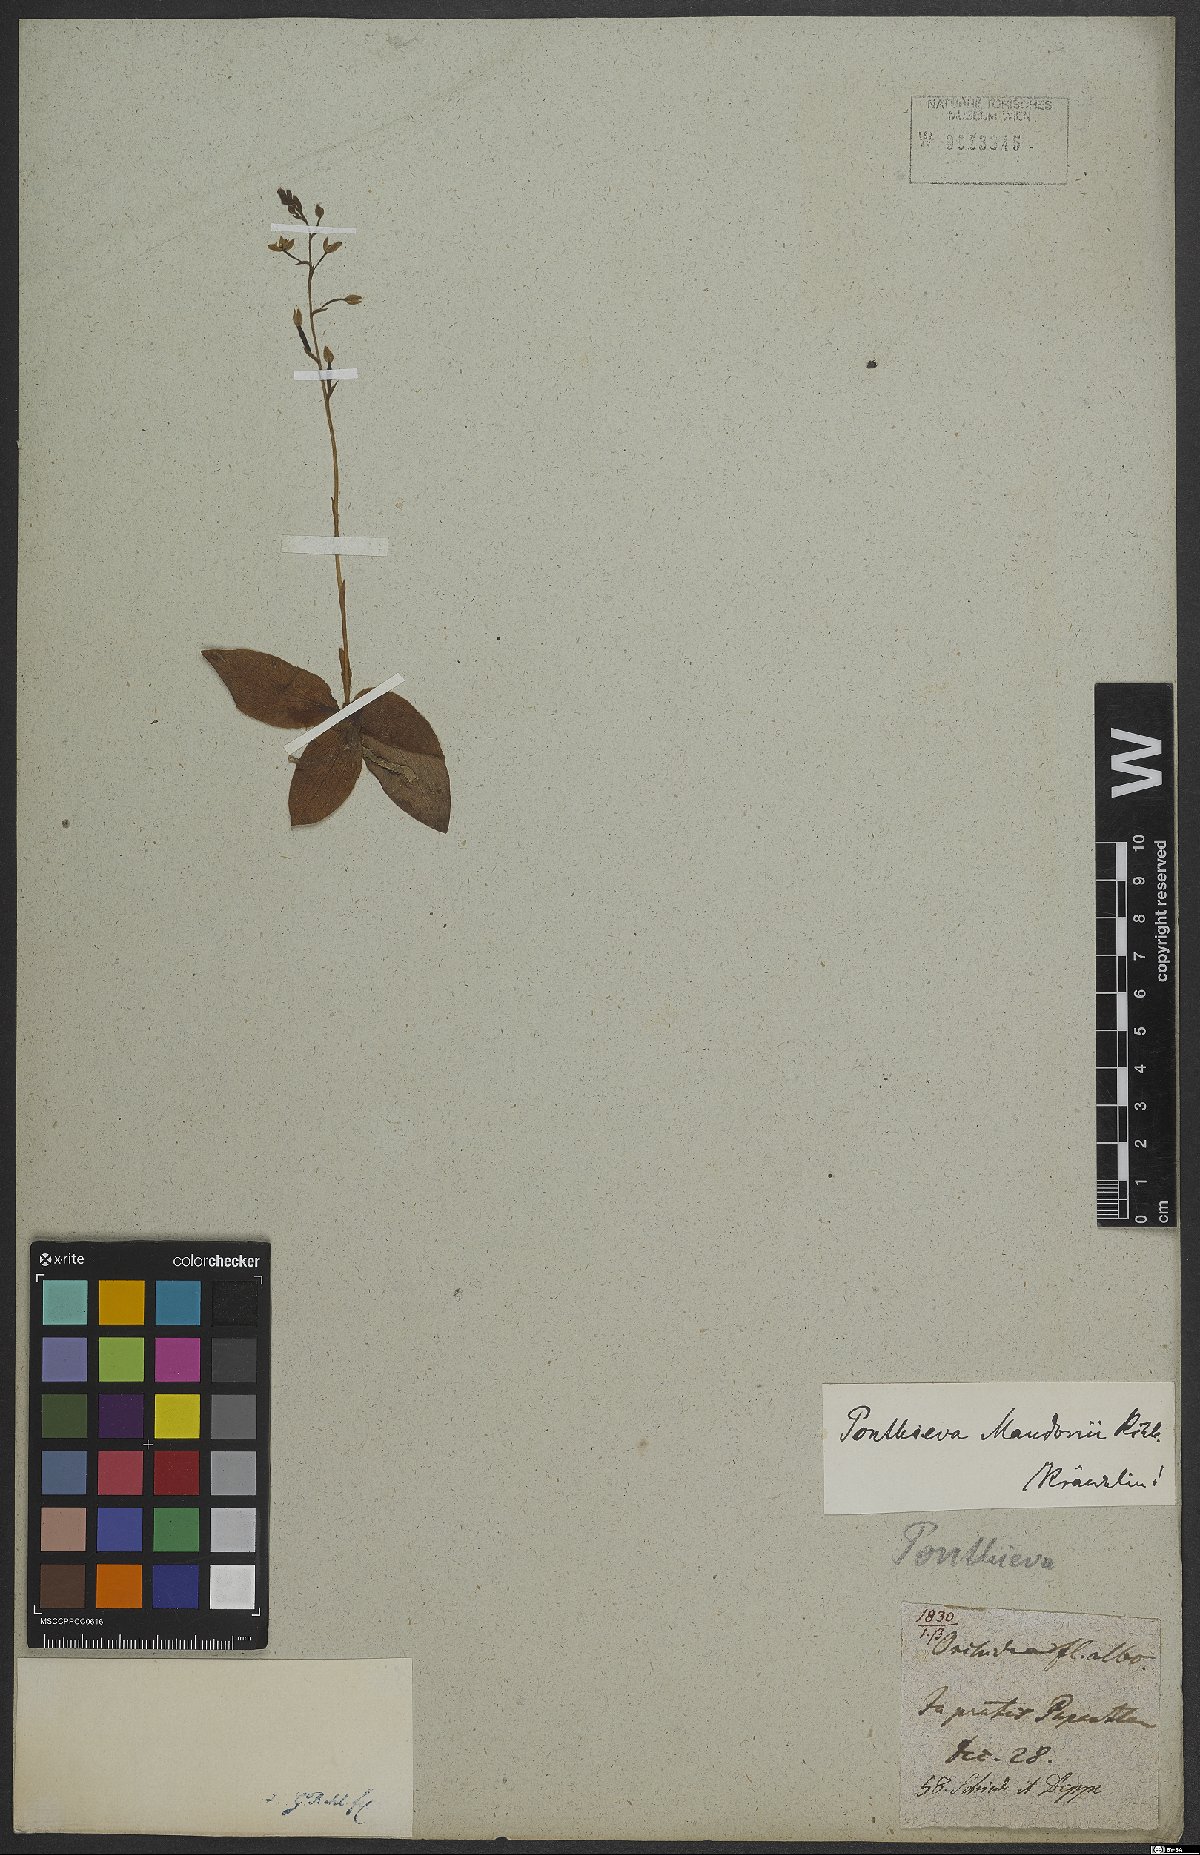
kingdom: Plantae
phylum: Tracheophyta
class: Liliopsida
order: Asparagales
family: Orchidaceae
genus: Ponthieva
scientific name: Ponthieva mandonii
